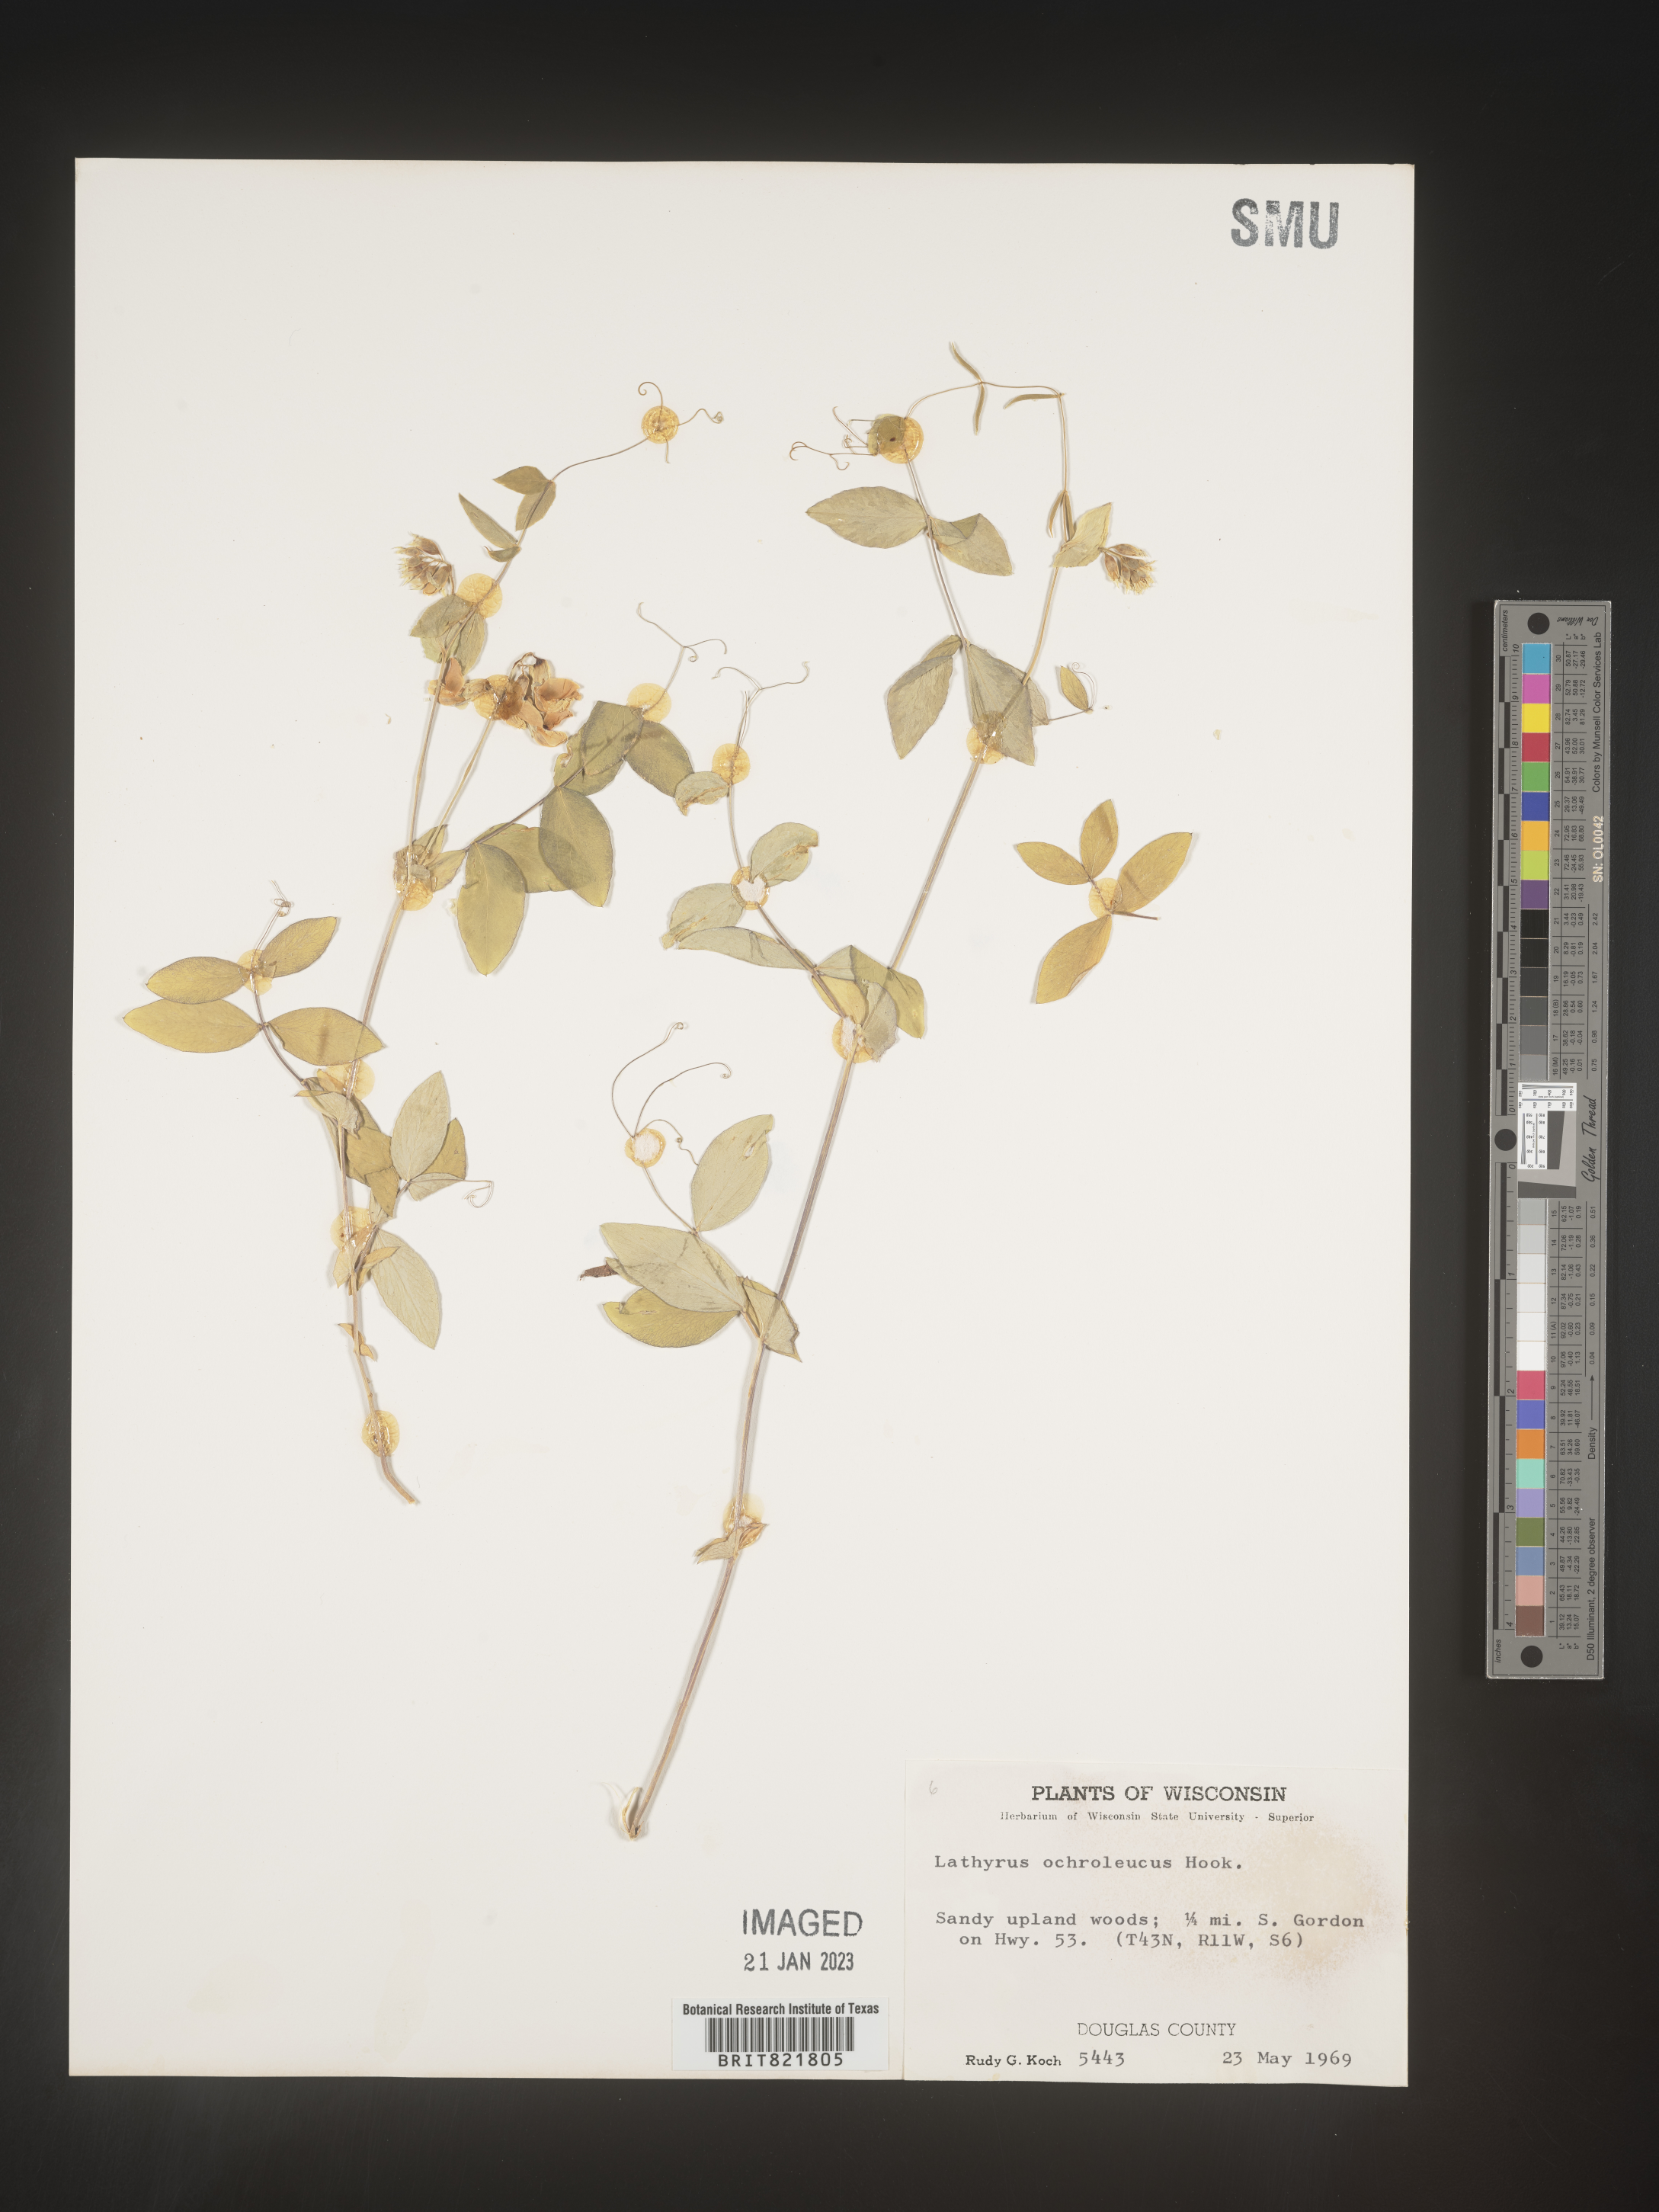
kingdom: Plantae
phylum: Tracheophyta
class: Magnoliopsida
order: Fabales
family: Fabaceae
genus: Lathyrus
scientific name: Lathyrus
